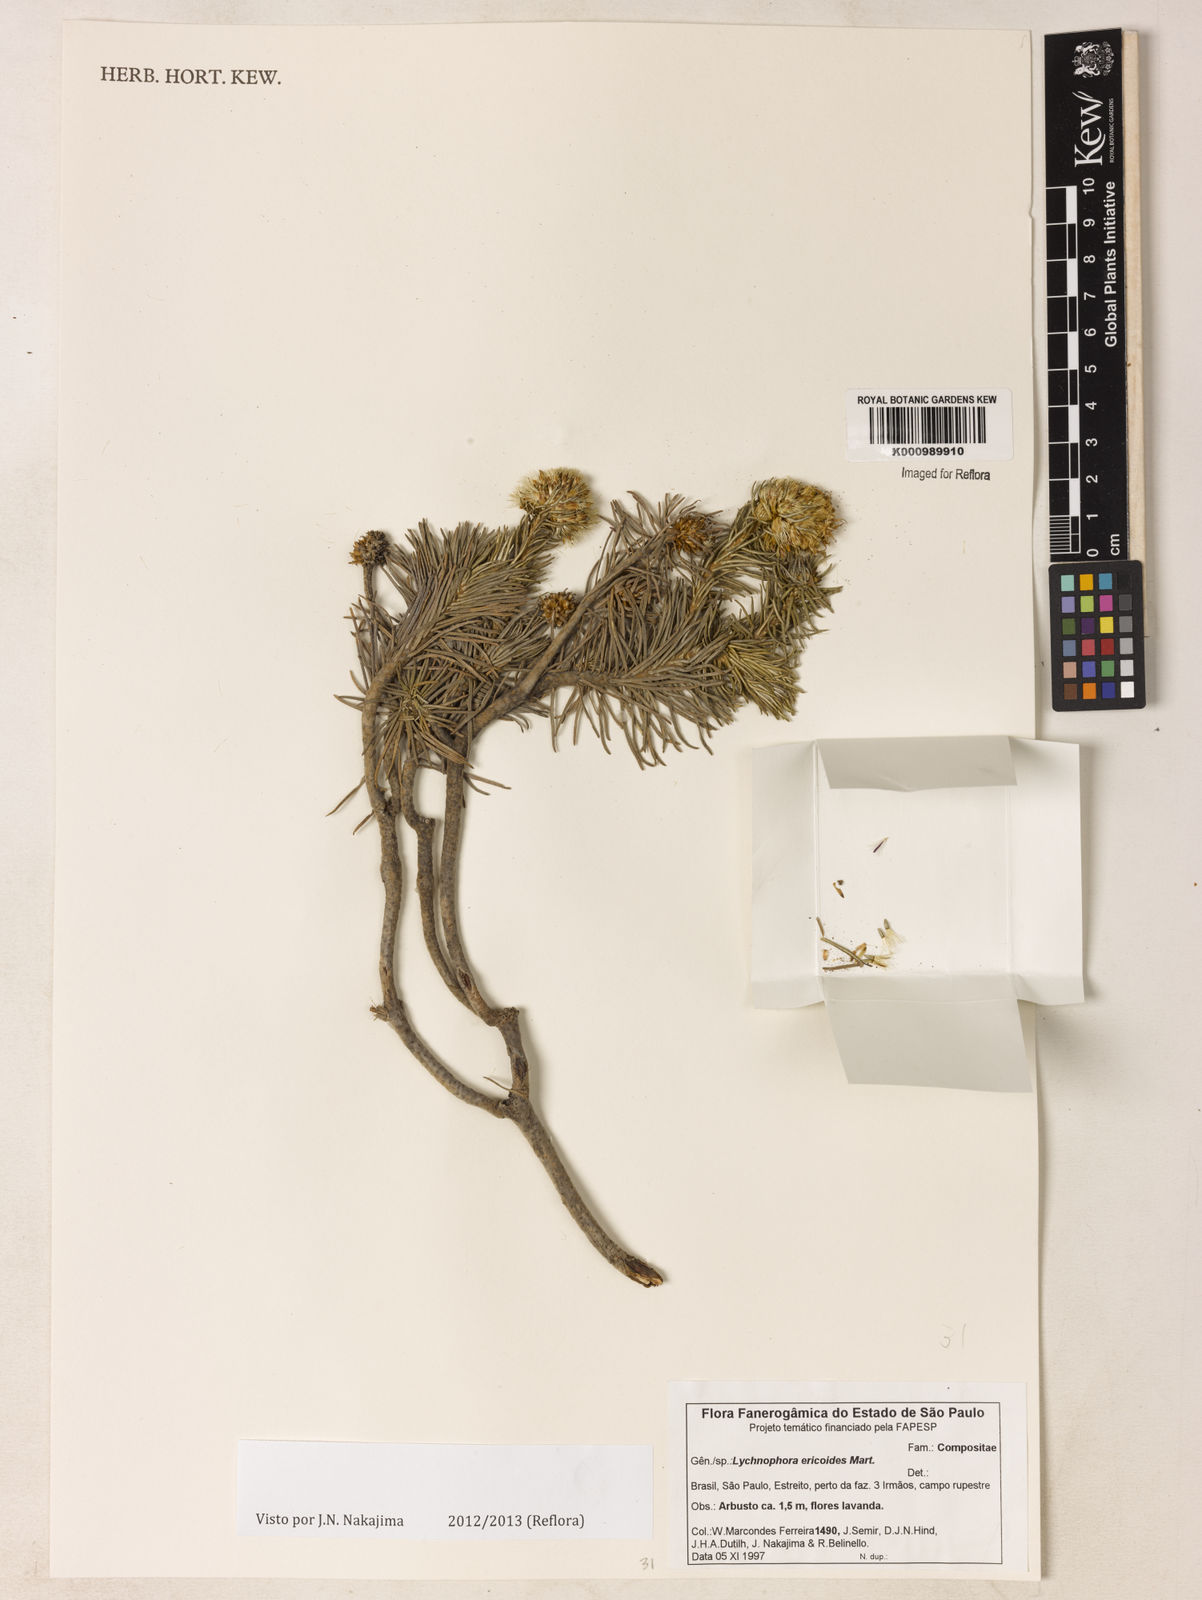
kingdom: Plantae
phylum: Tracheophyta
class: Magnoliopsida
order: Asterales
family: Asteraceae
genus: Lychnophora
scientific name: Lychnophora ericoides
